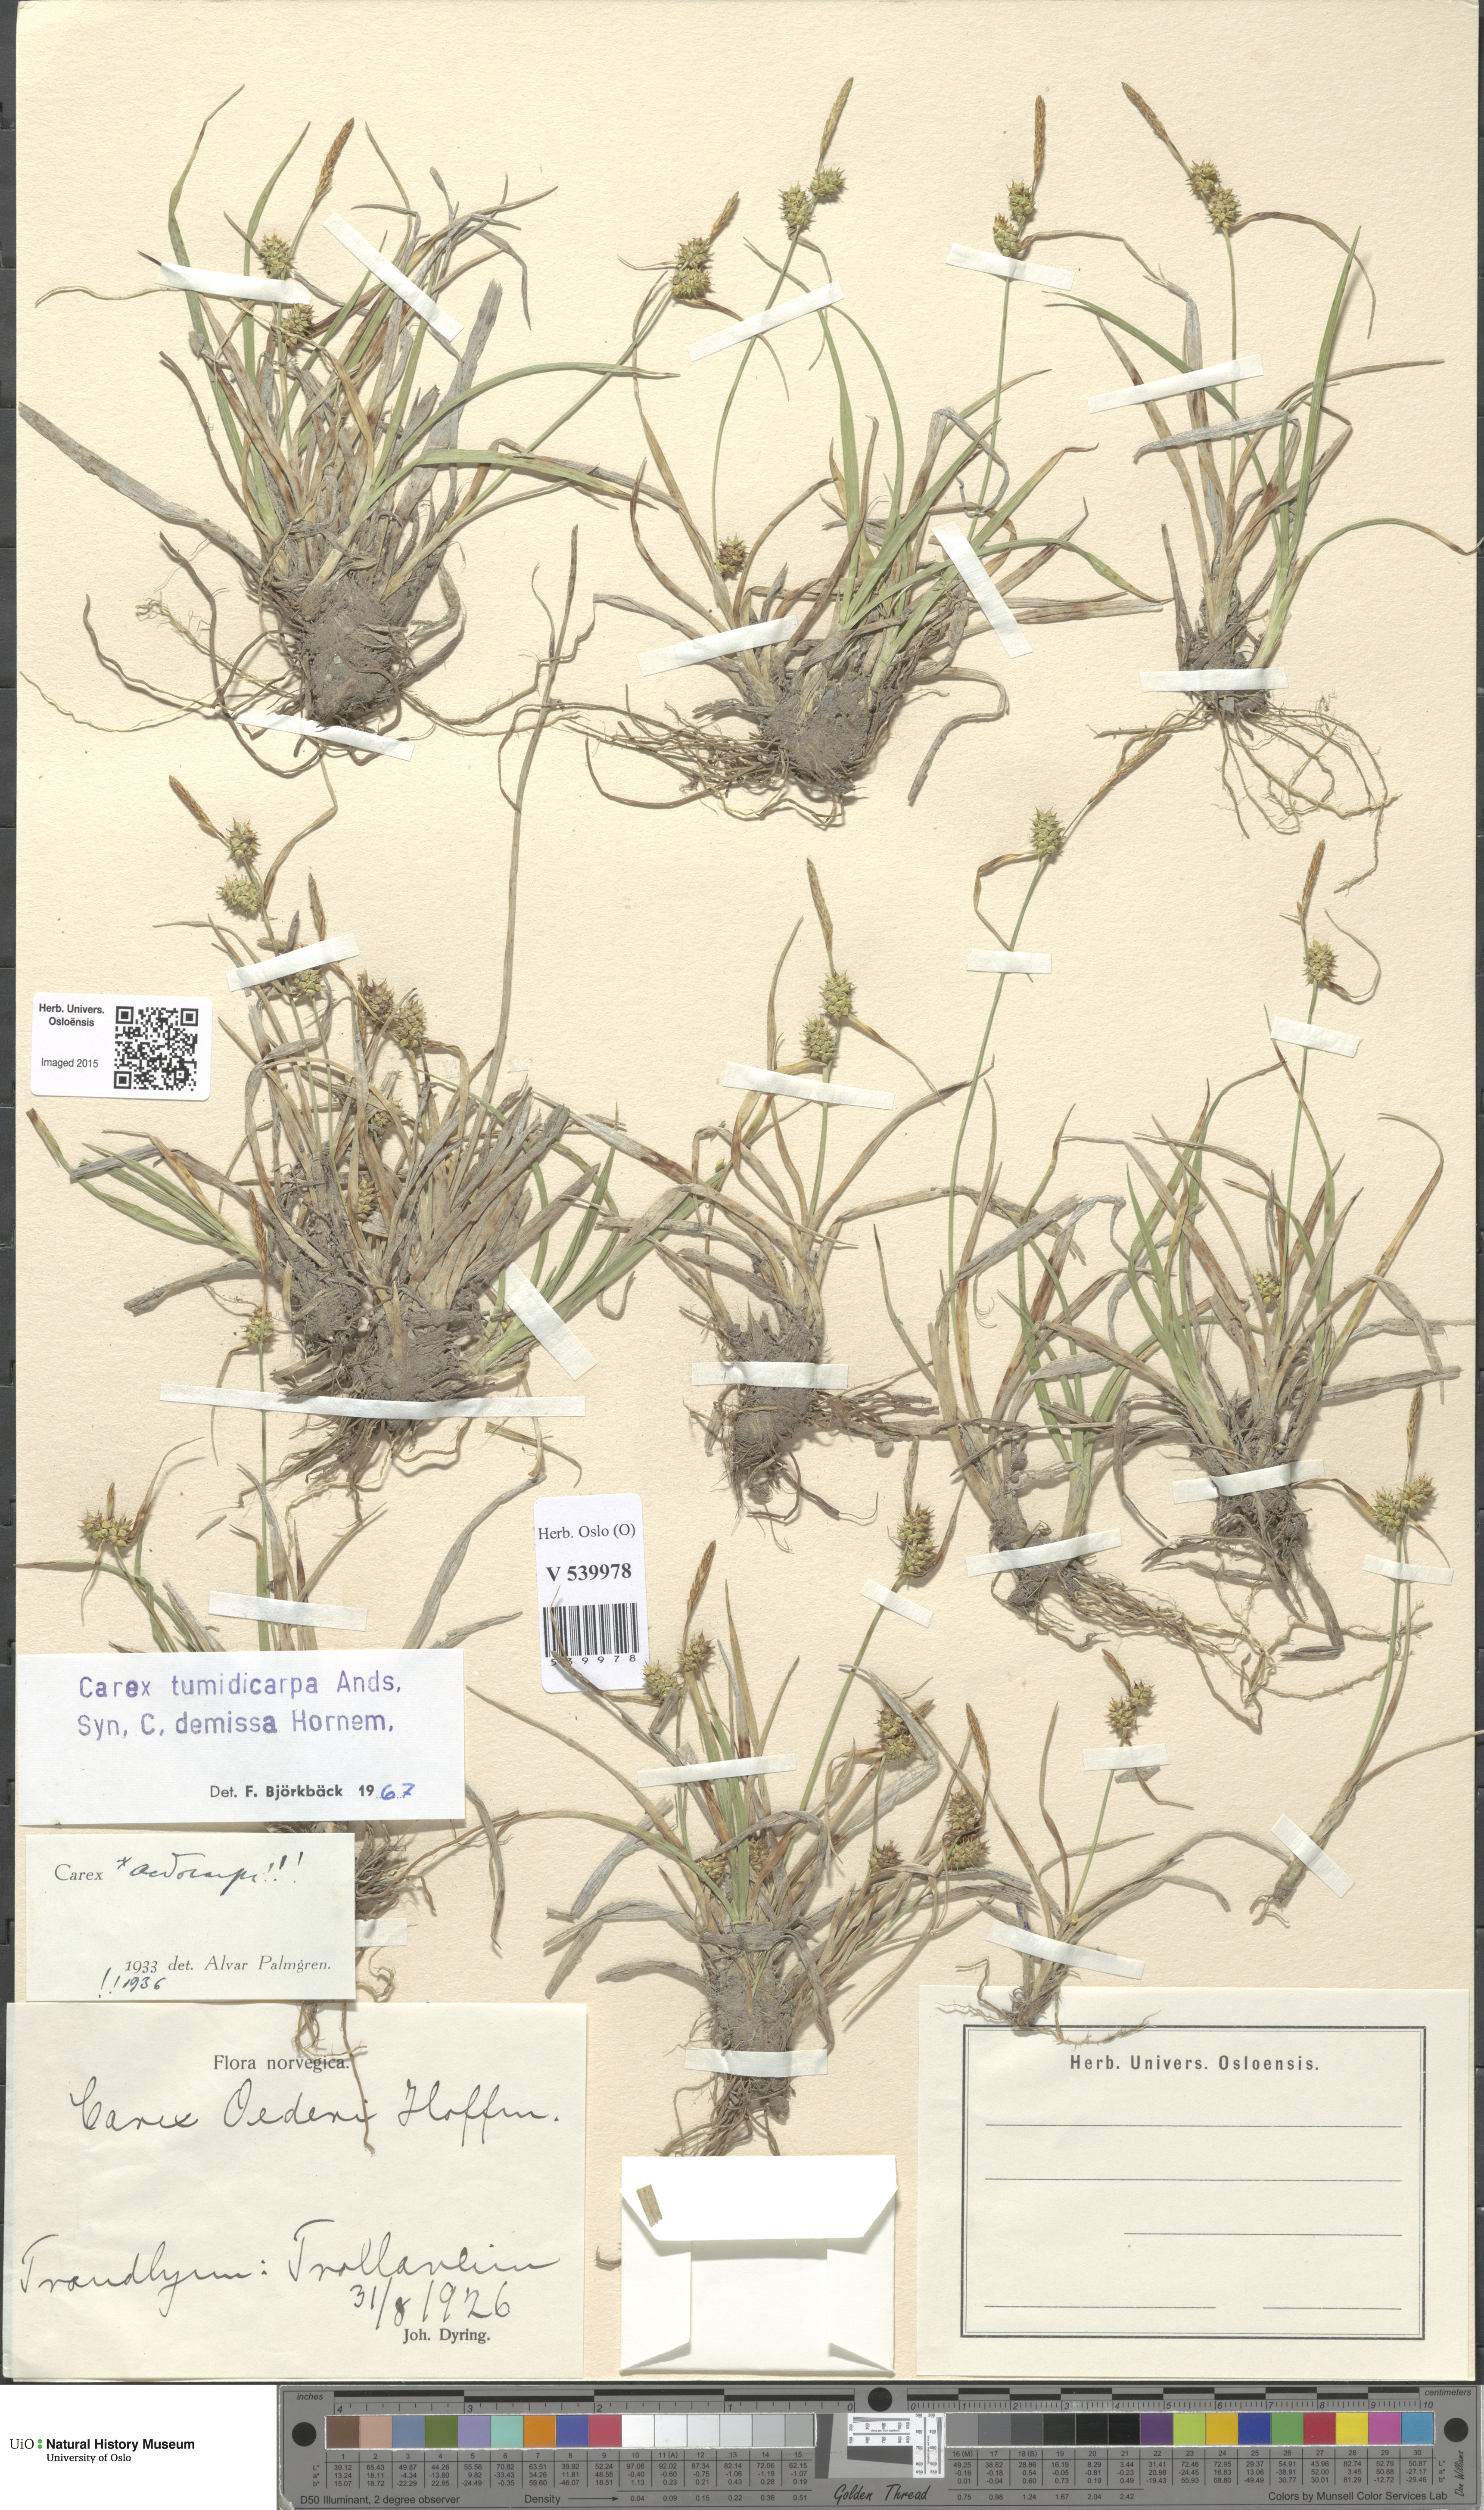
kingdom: Plantae
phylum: Tracheophyta
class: Liliopsida
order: Poales
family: Cyperaceae
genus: Carex
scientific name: Carex demissa
